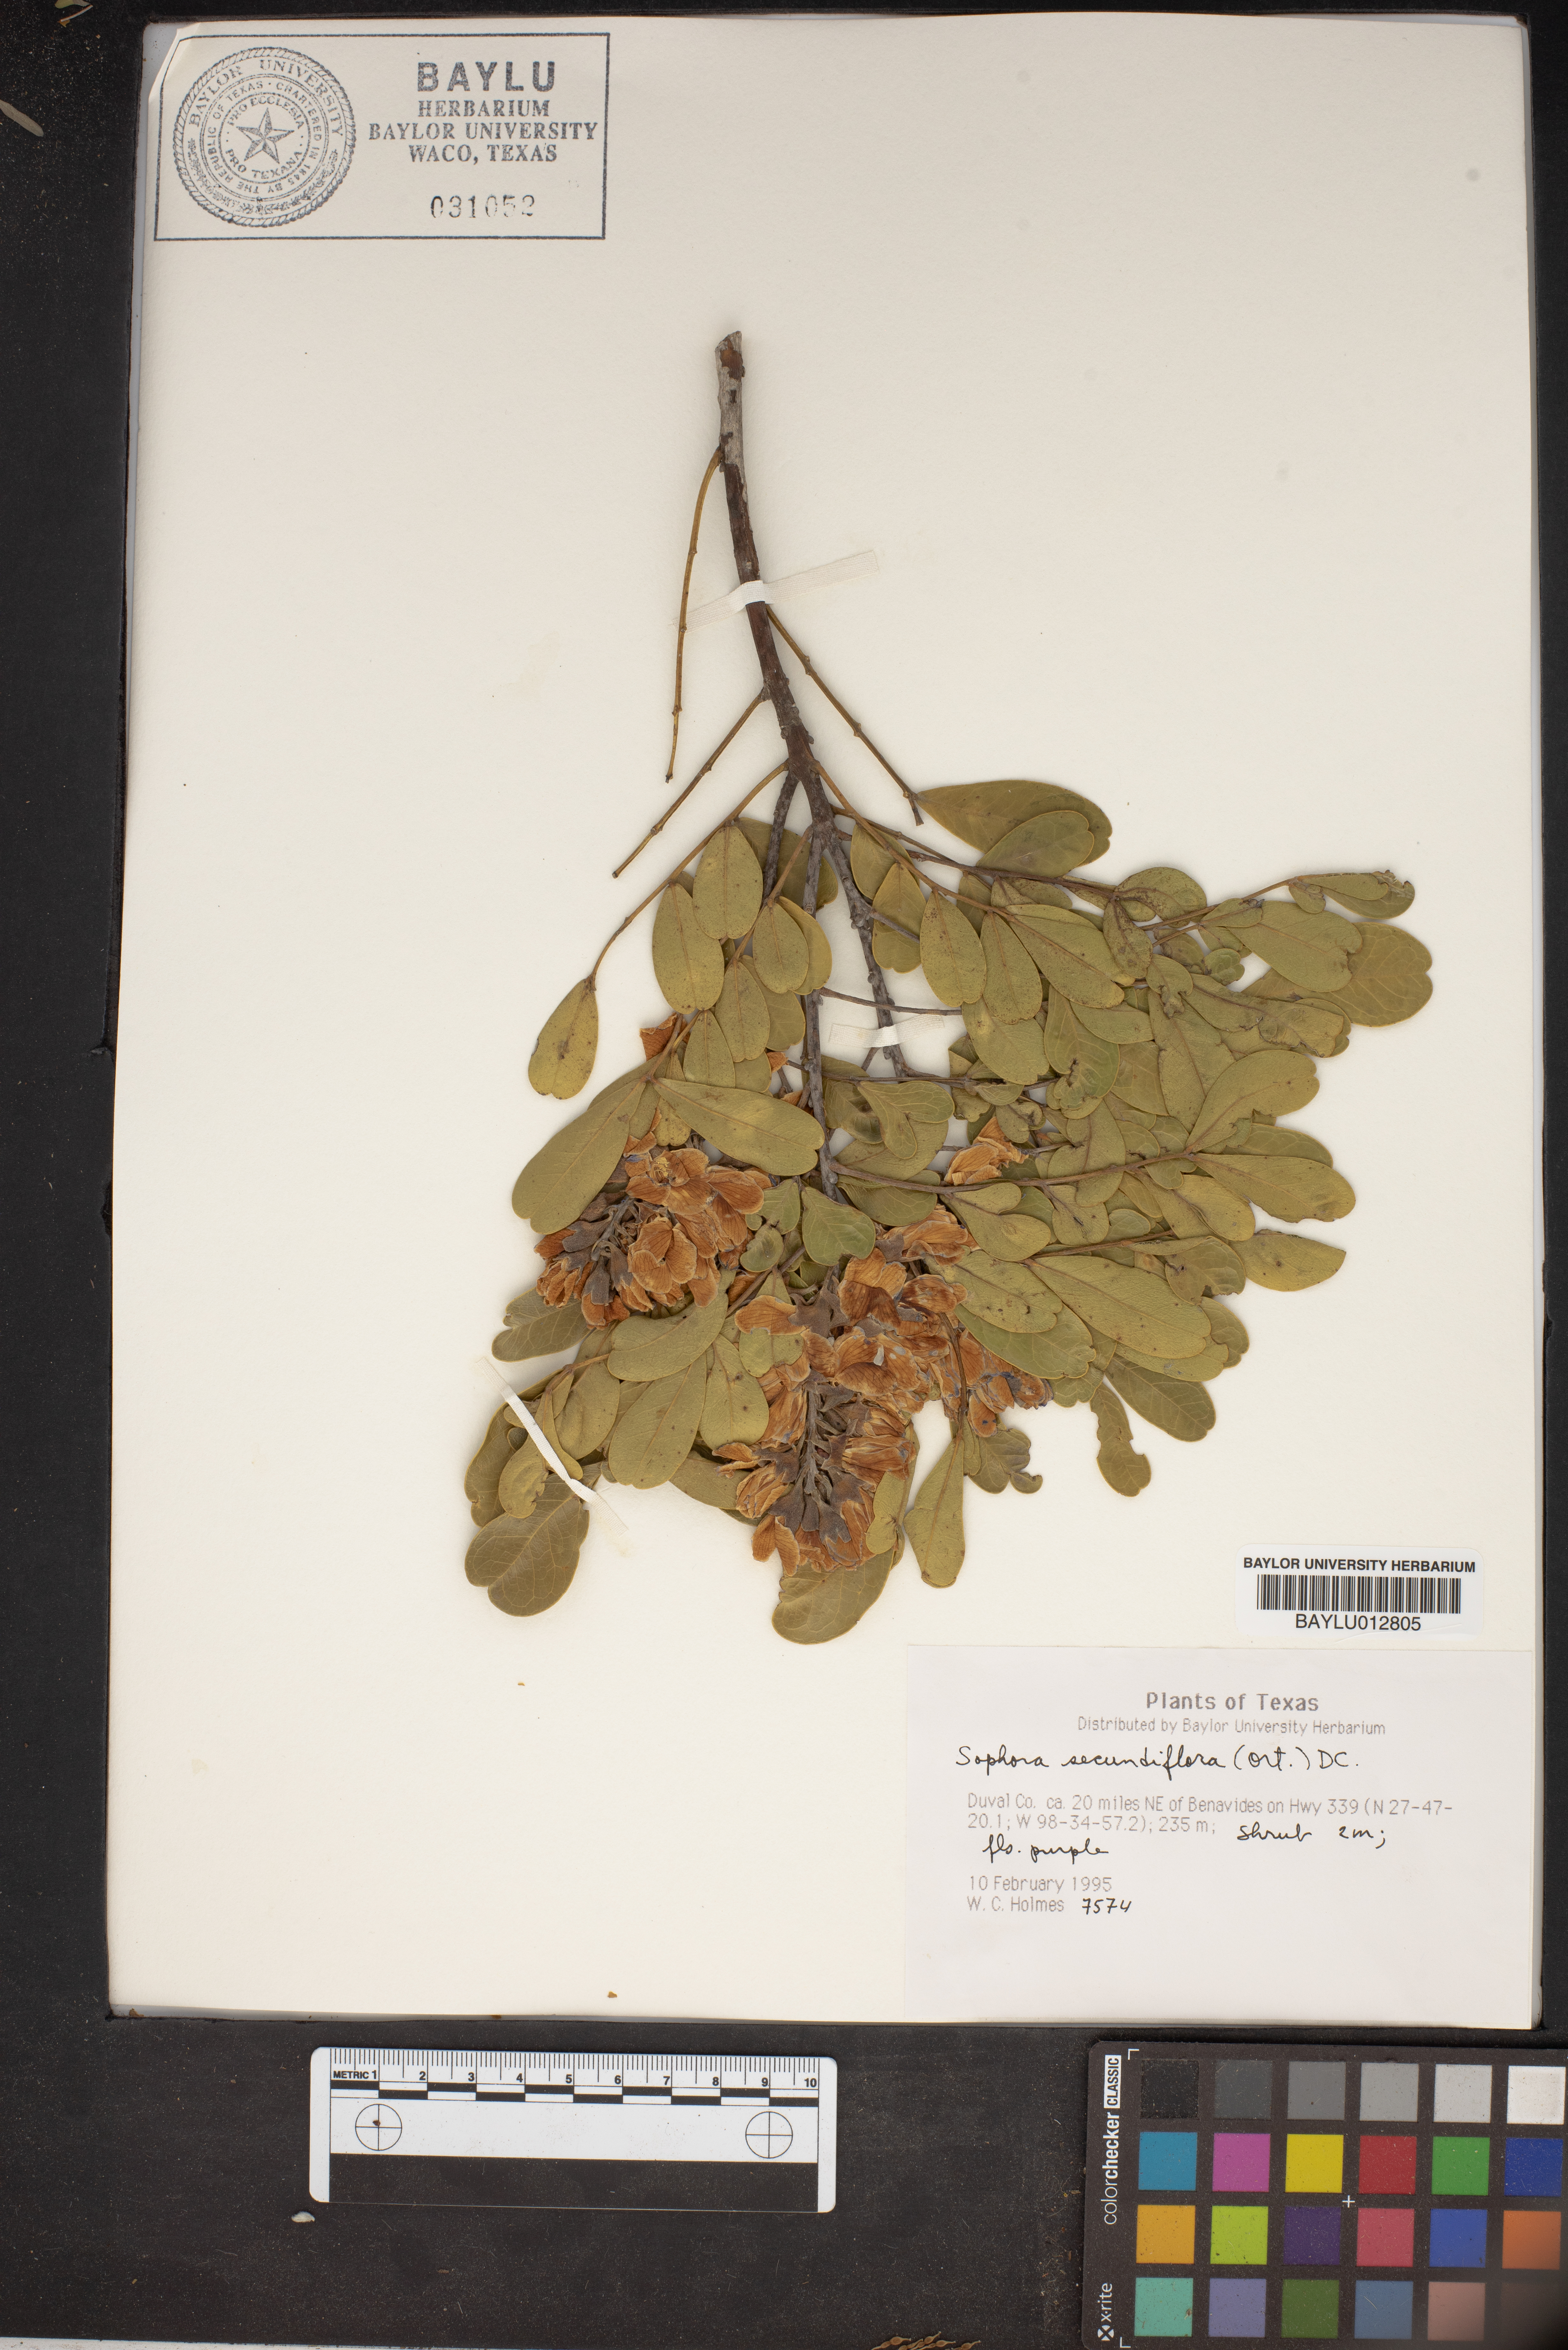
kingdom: Plantae
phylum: Tracheophyta
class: Magnoliopsida
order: Fabales
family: Fabaceae
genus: Dermatophyllum
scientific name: Dermatophyllum secundiflorum
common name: Texas-mountain-laurel
